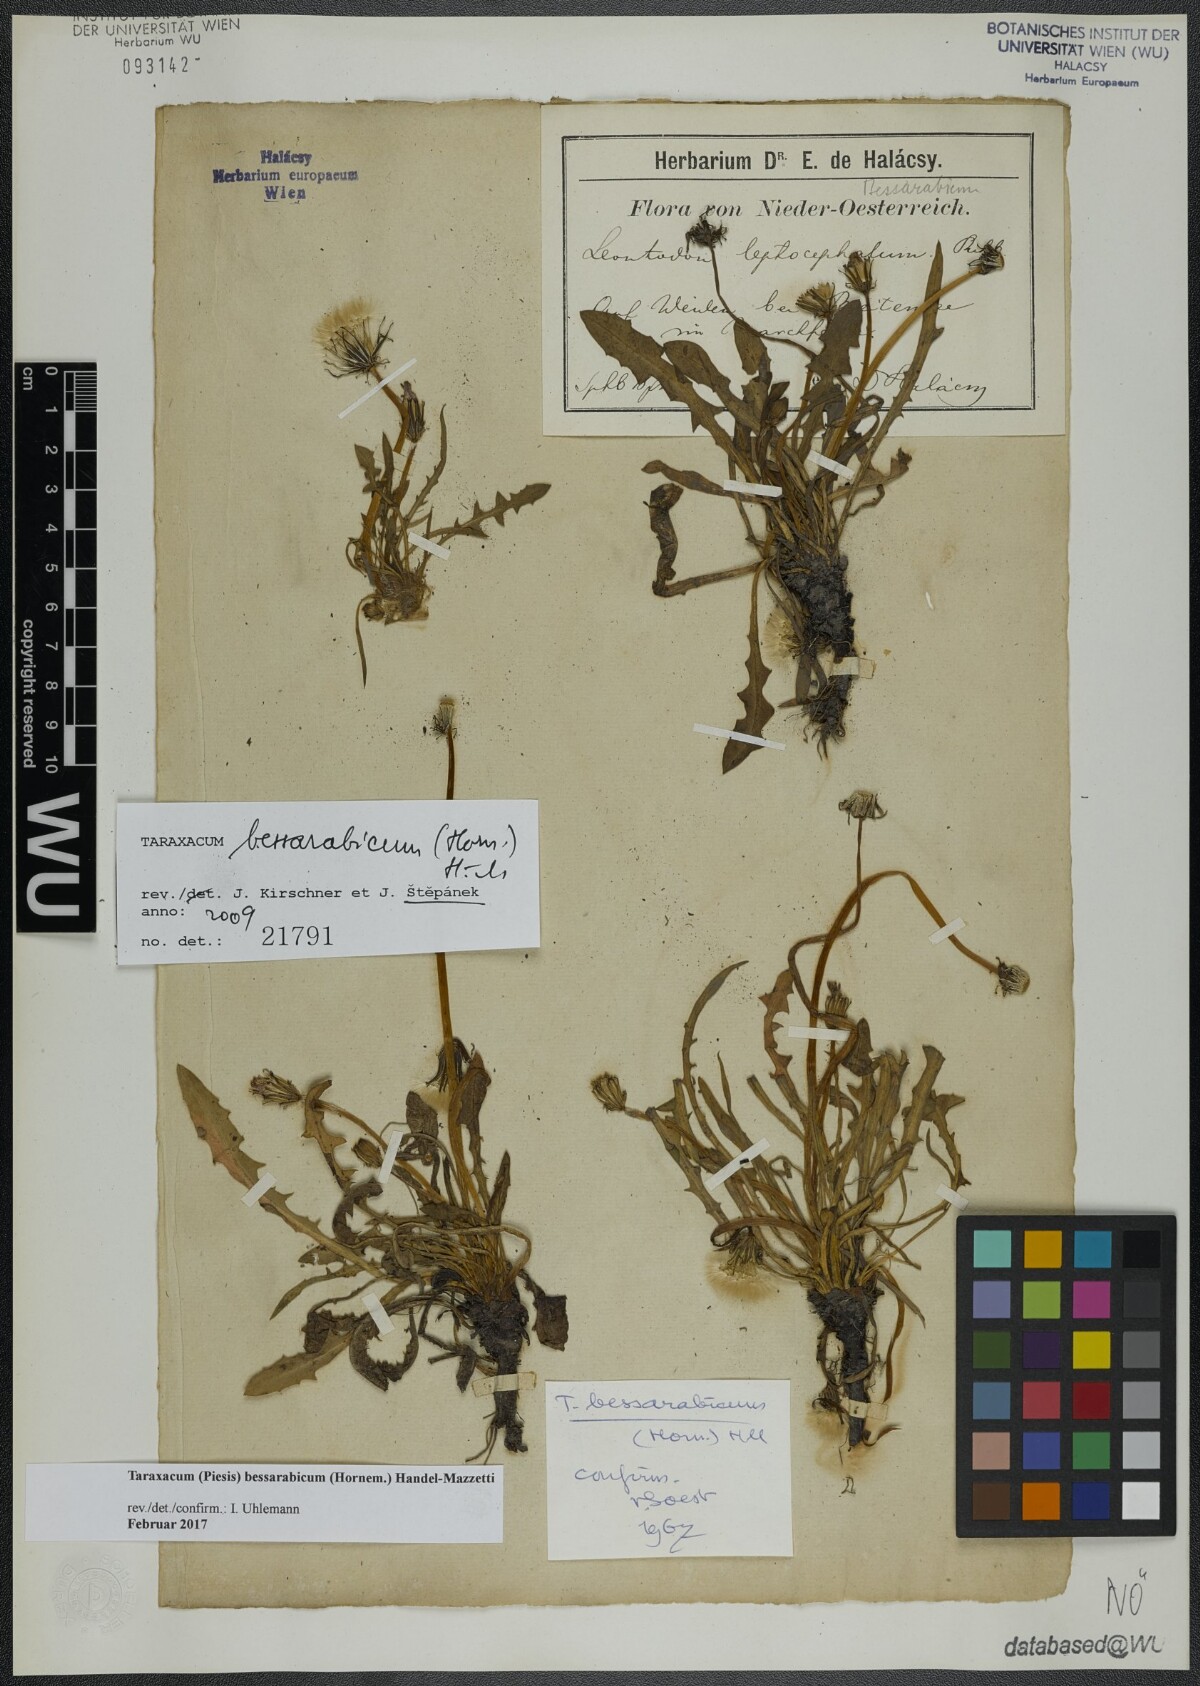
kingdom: Plantae
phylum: Tracheophyta
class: Magnoliopsida
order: Asterales
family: Asteraceae
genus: Taraxacum
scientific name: Taraxacum bessarabicum
